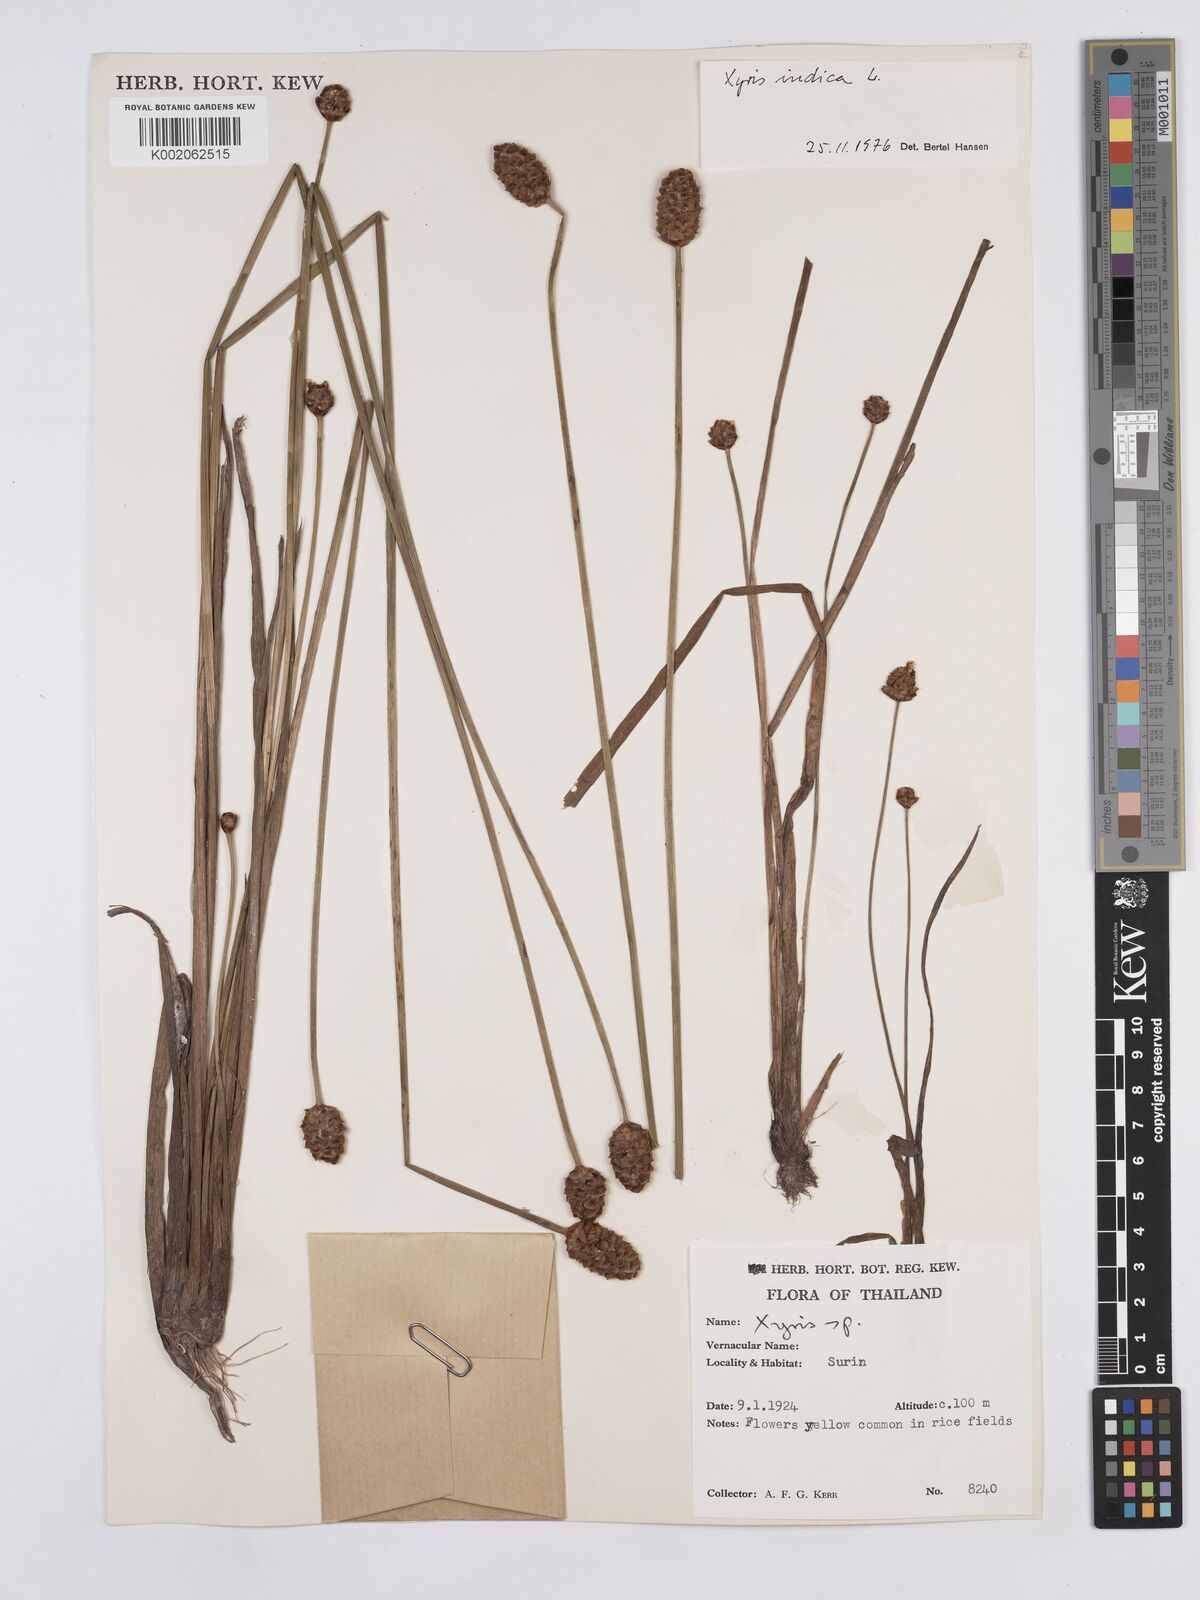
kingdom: Plantae
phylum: Tracheophyta
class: Liliopsida
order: Poales
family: Xyridaceae
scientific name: Xyridaceae
